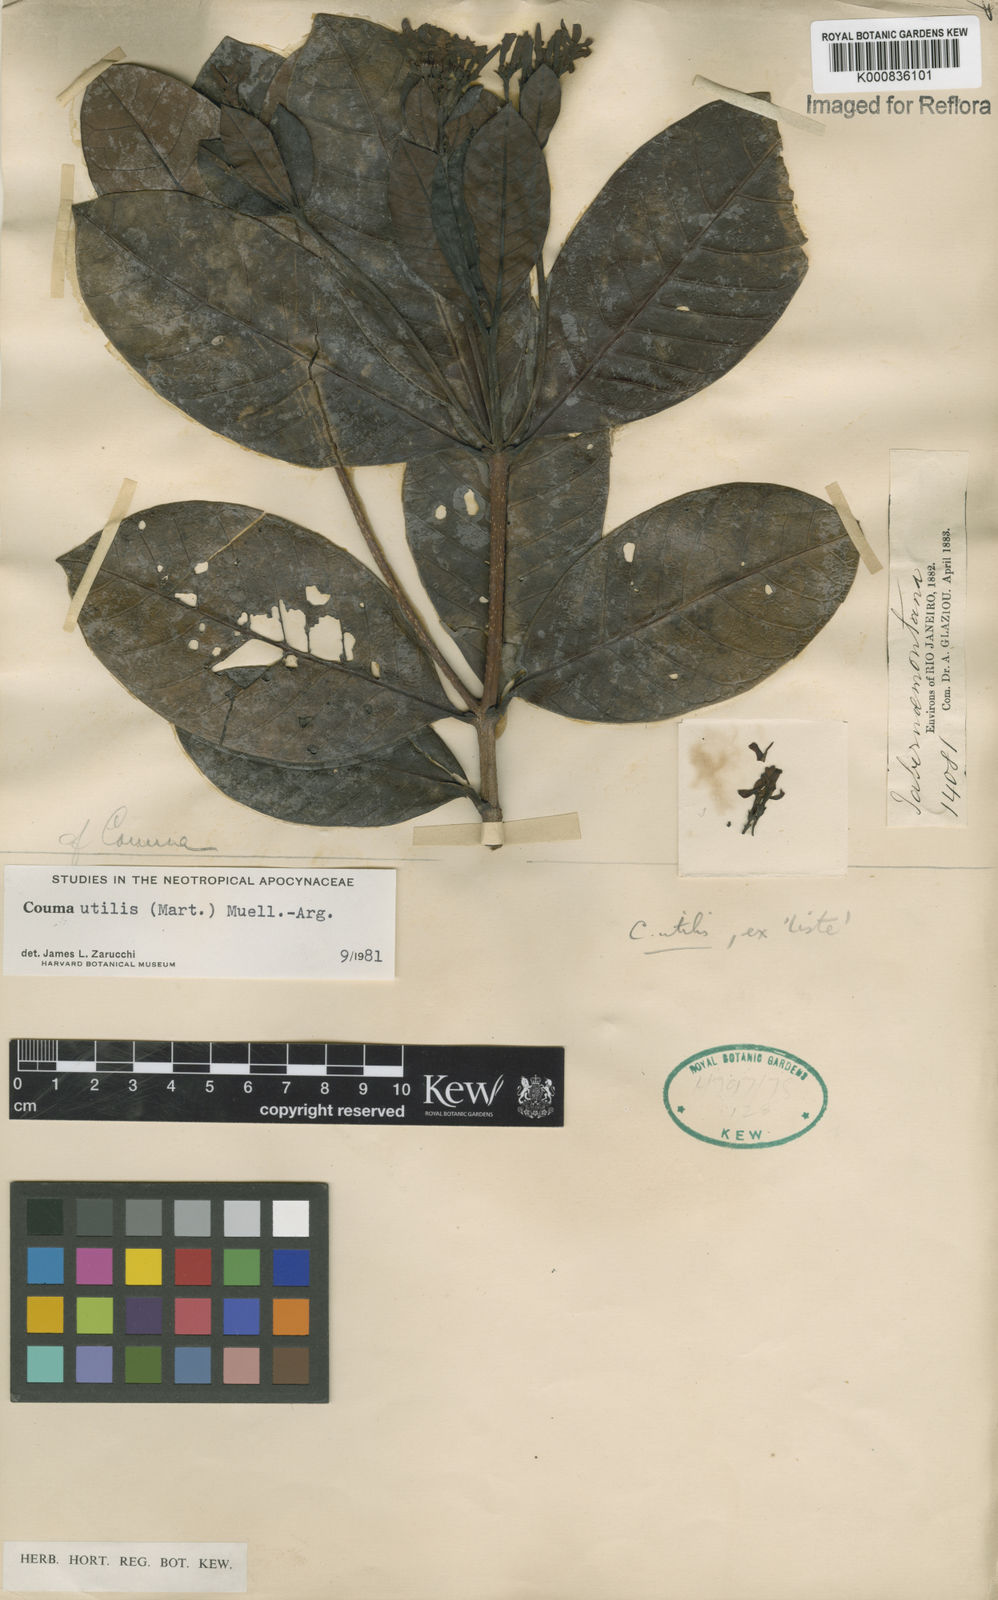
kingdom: Plantae
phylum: Tracheophyta
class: Magnoliopsida
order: Gentianales
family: Apocynaceae
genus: Couma
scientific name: Couma
